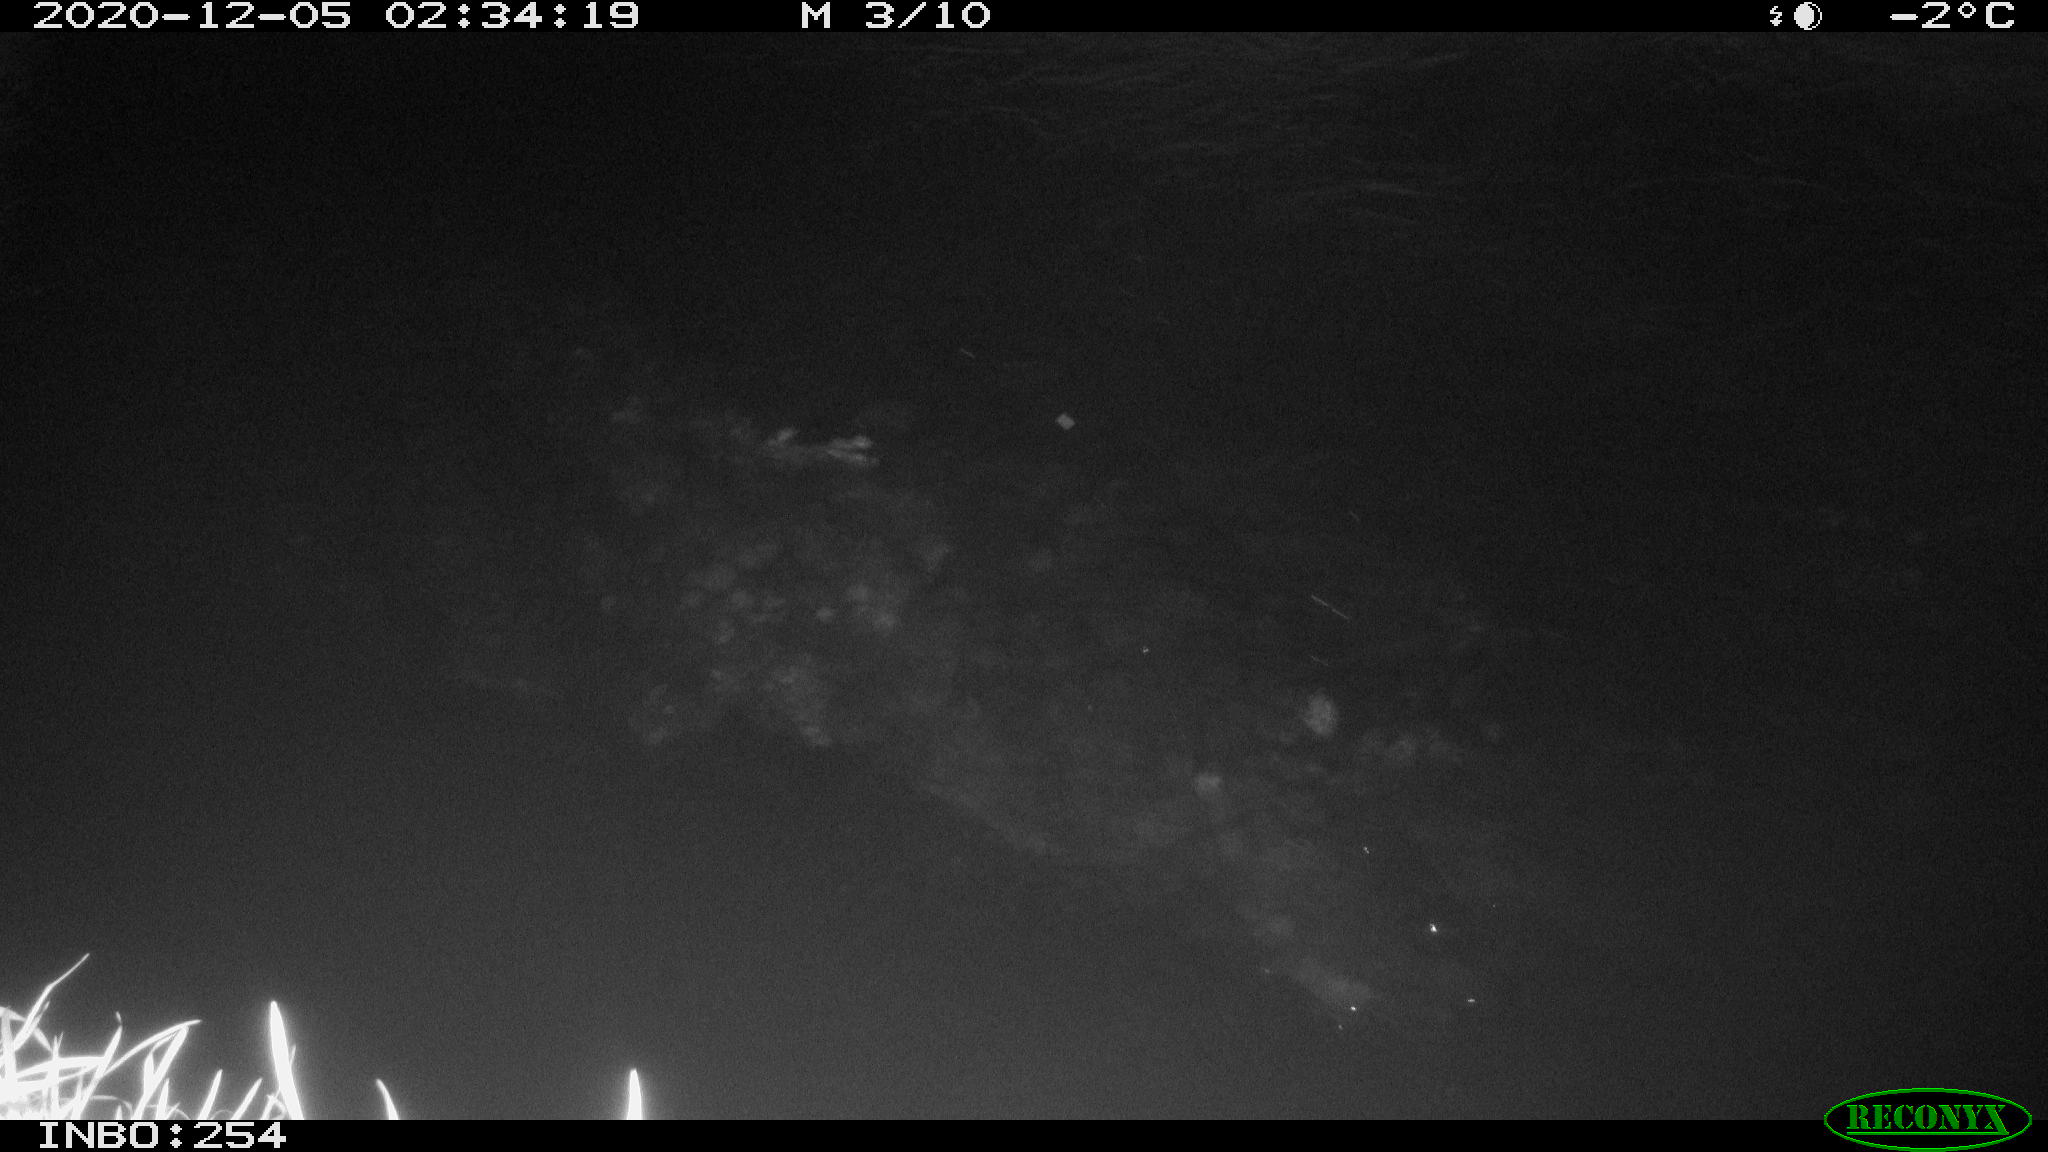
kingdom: Animalia
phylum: Chordata
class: Aves
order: Anseriformes
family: Anatidae
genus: Anas
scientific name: Anas platyrhynchos
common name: Mallard
